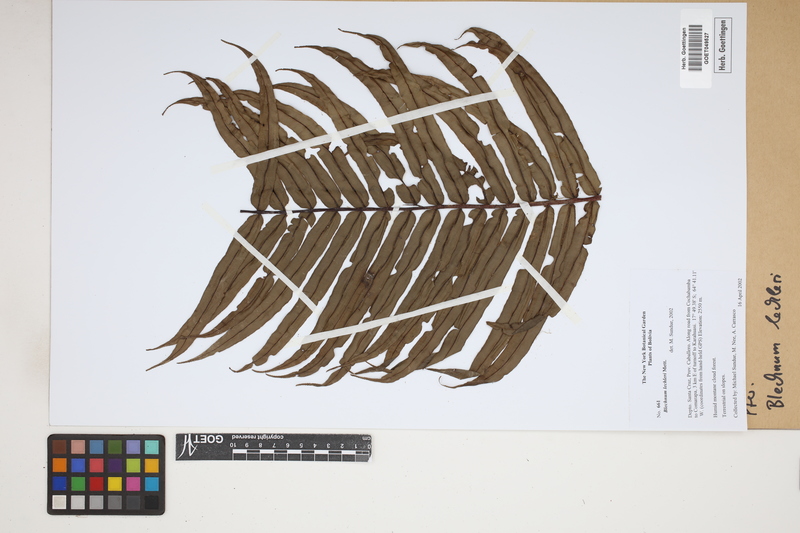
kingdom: Plantae
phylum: Tracheophyta
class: Polypodiopsida
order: Polypodiales
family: Blechnaceae
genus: Parablechnum
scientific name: Parablechnum lechleri
